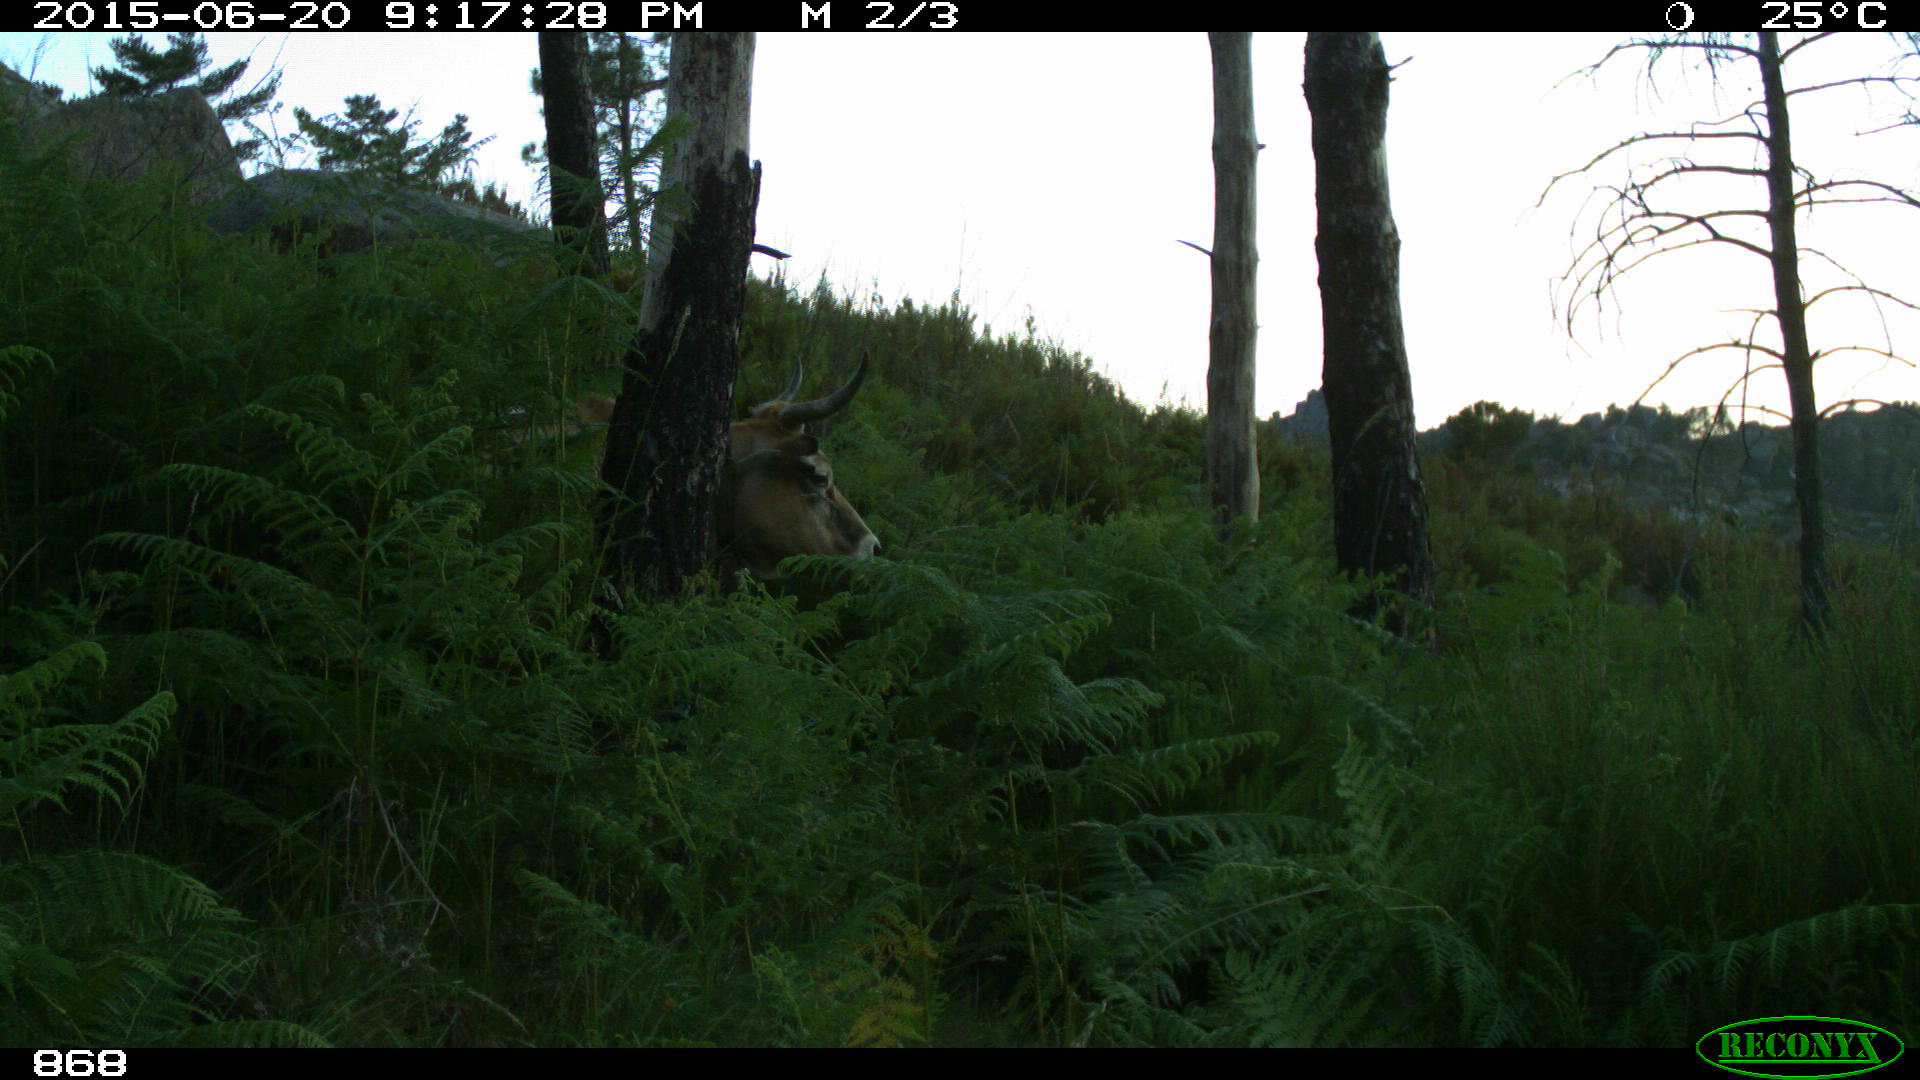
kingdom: Animalia
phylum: Chordata
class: Mammalia
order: Artiodactyla
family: Bovidae
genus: Bos
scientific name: Bos taurus
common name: Domesticated cattle
